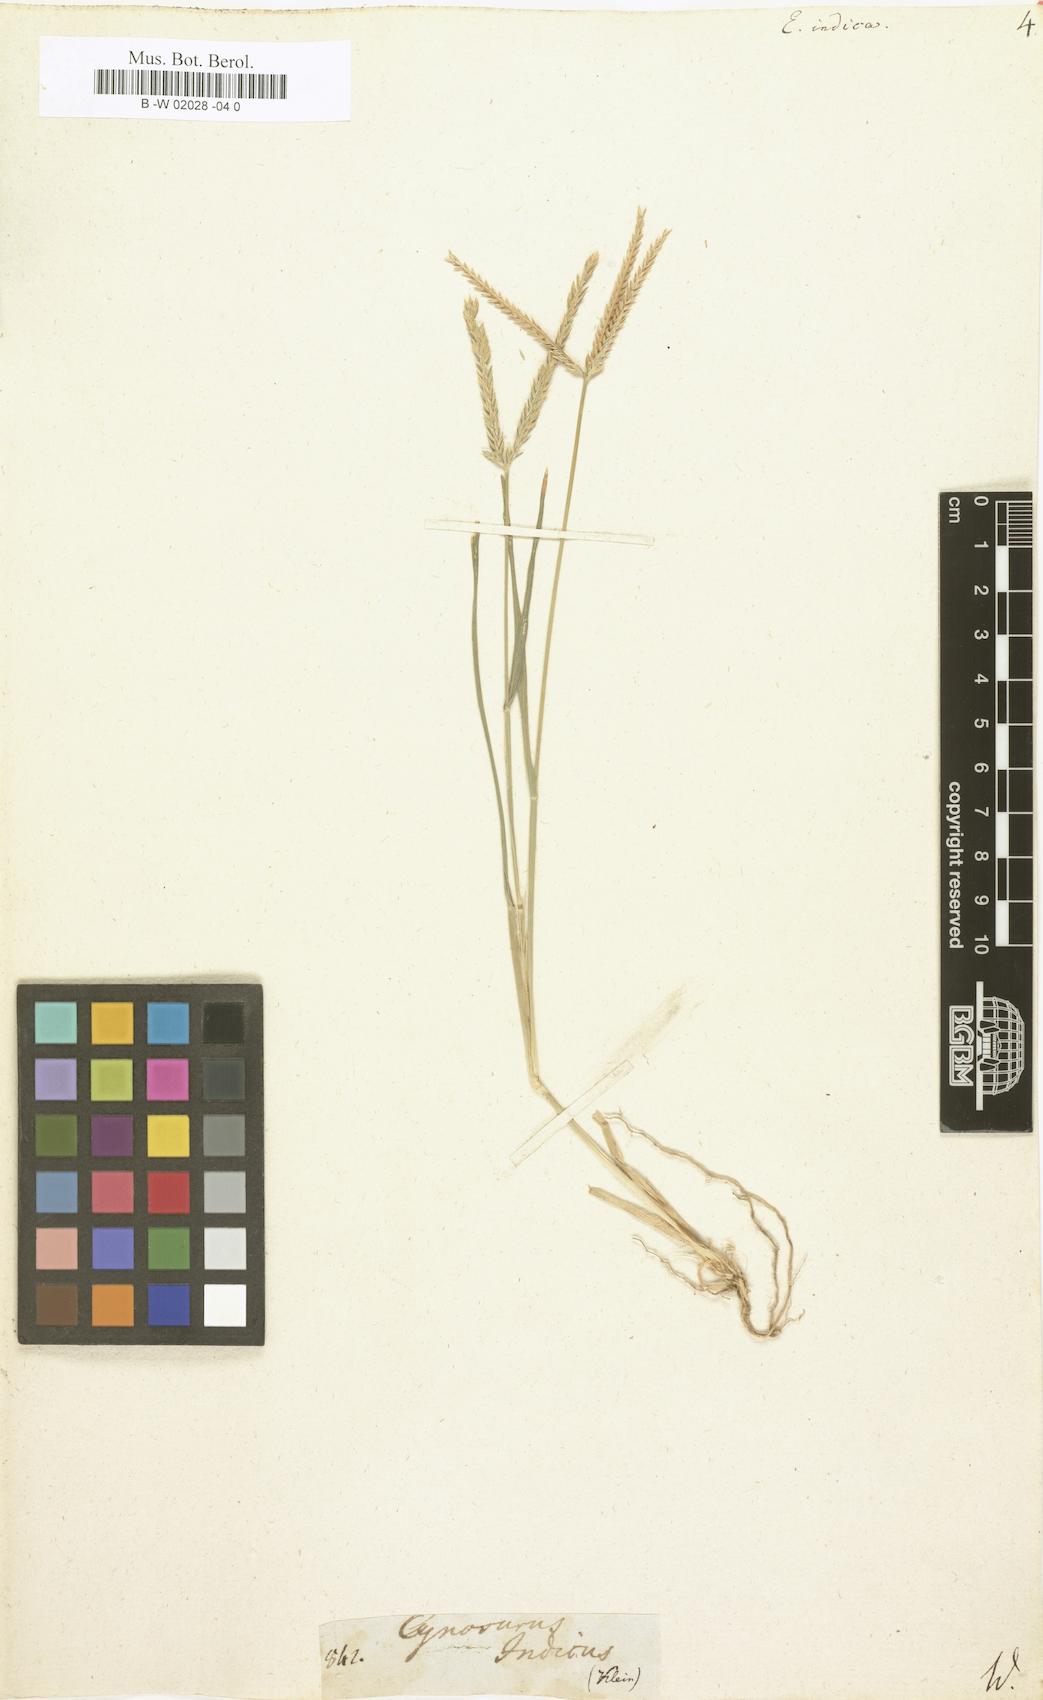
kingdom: Plantae
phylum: Tracheophyta
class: Liliopsida
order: Poales
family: Poaceae
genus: Eleusine
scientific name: Eleusine indica
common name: Yard-grass
